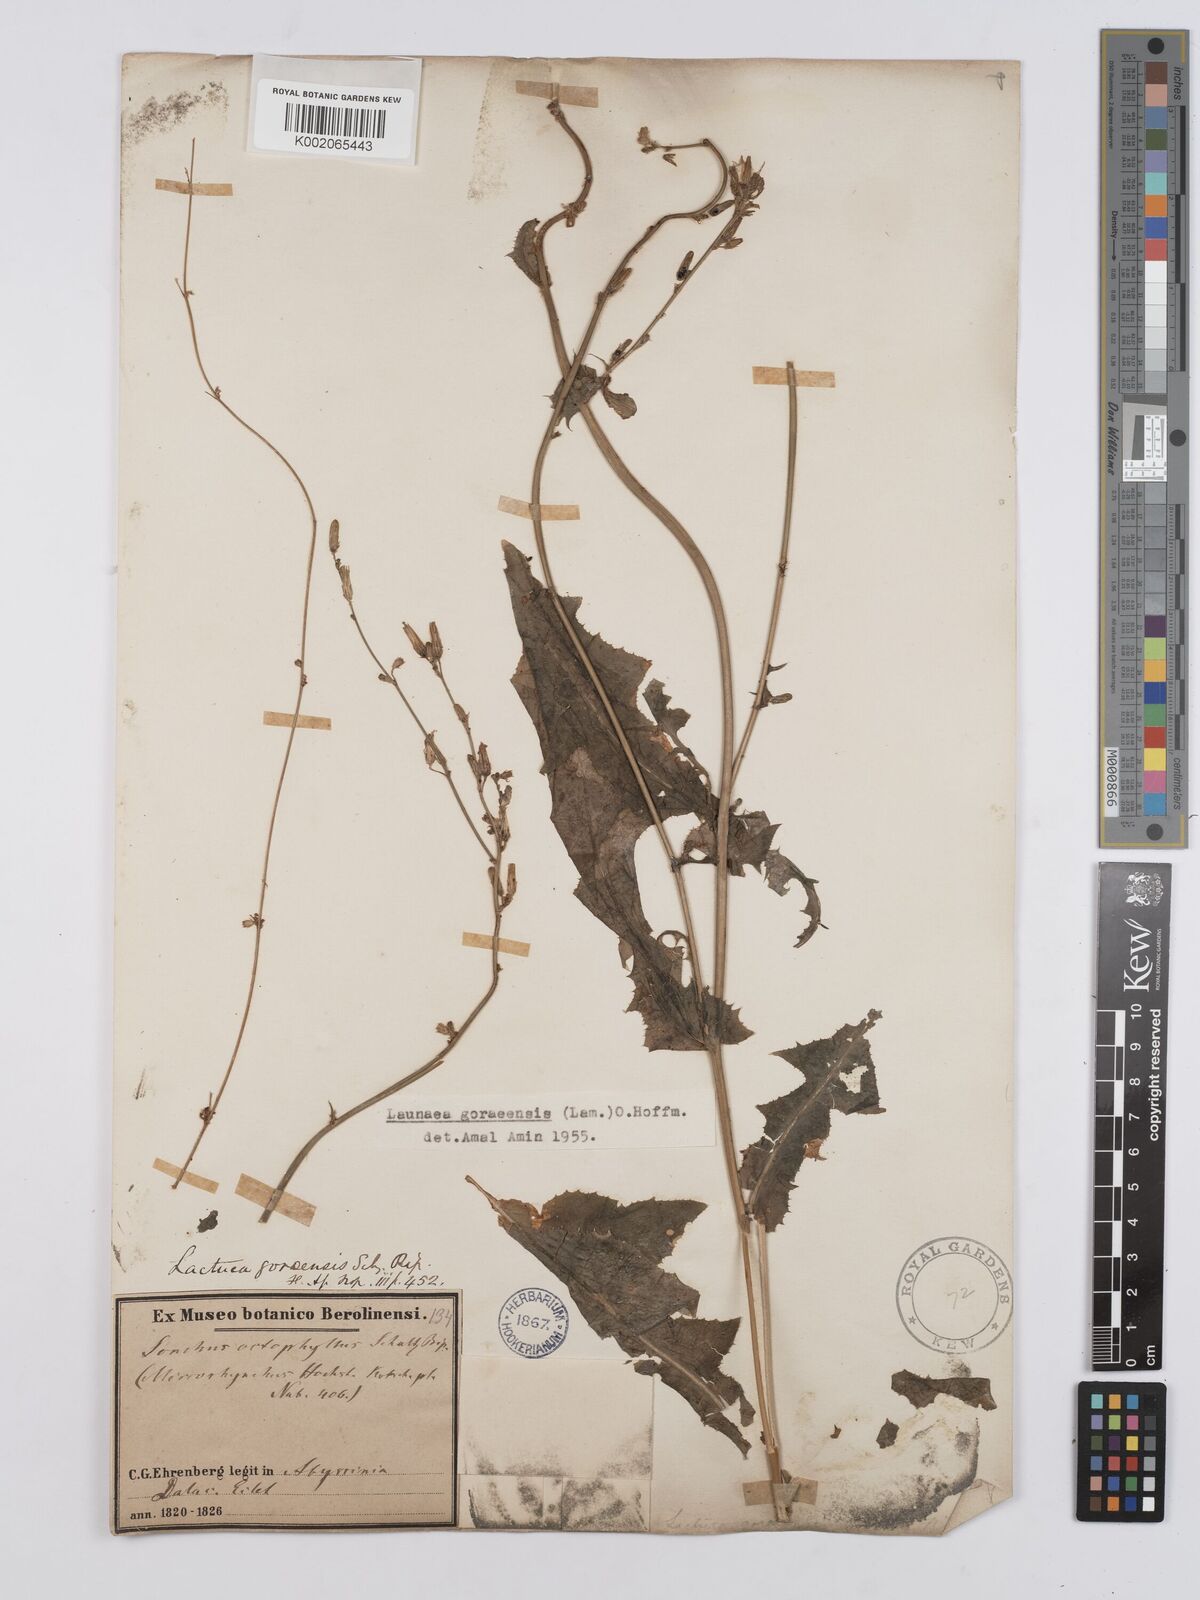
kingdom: Plantae
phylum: Tracheophyta
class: Magnoliopsida
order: Asterales
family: Asteraceae
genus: Launaea
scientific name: Launaea intybacea
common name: Achicoria azul
